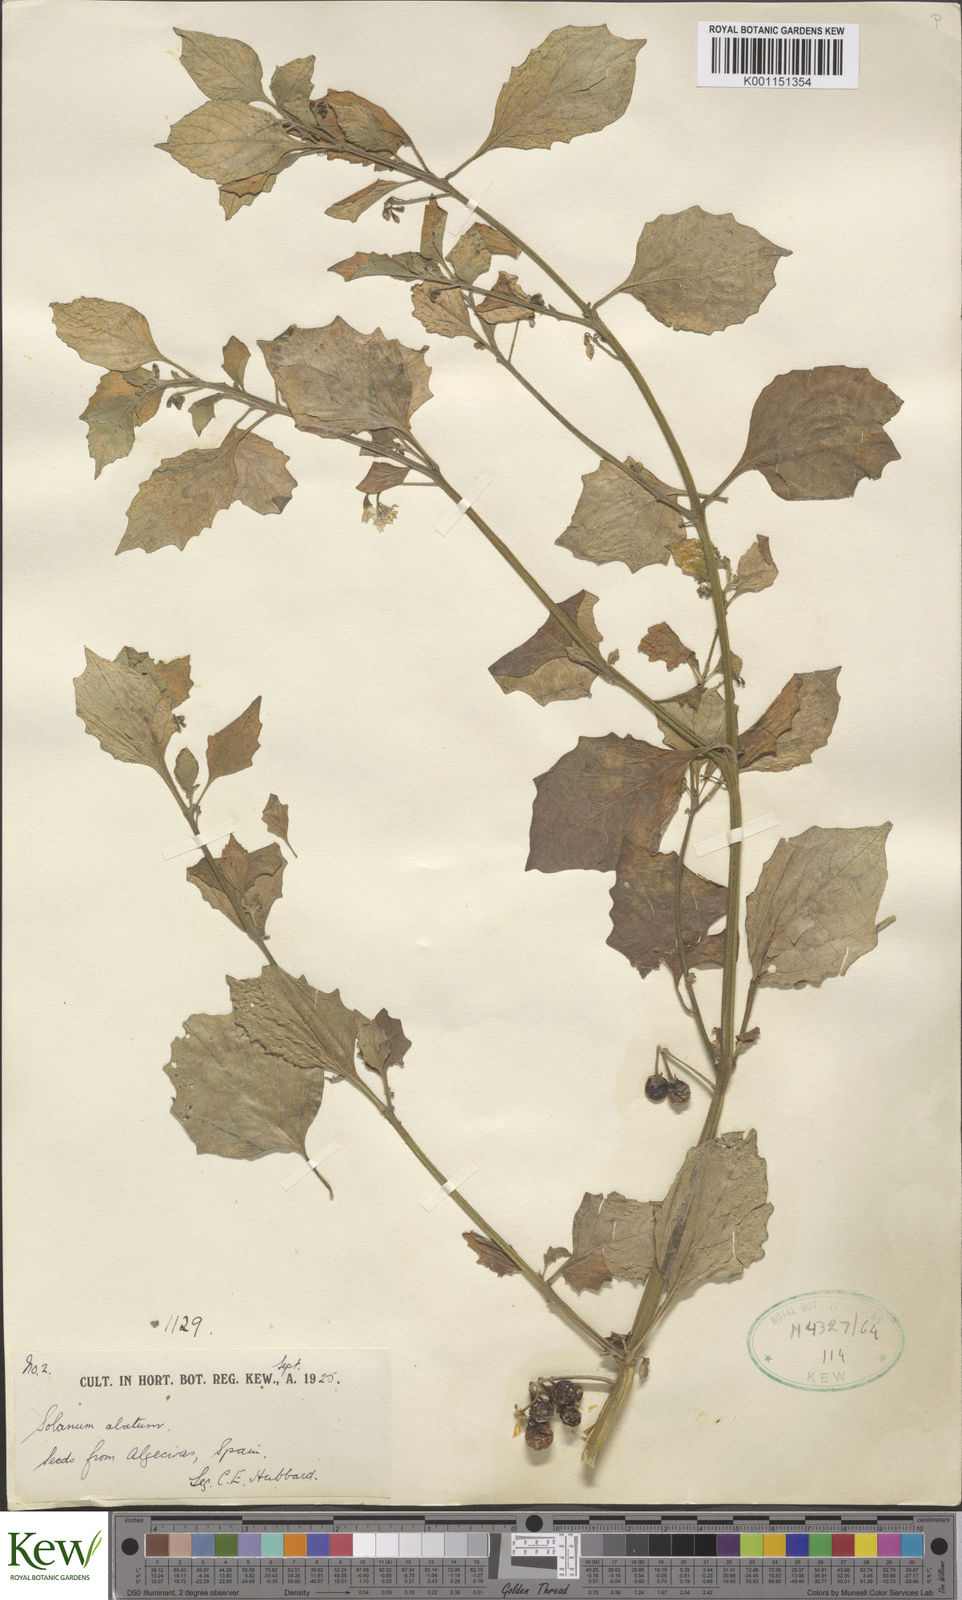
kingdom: Plantae
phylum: Tracheophyta
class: Magnoliopsida
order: Solanales
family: Solanaceae
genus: Solanum
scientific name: Solanum alatum
